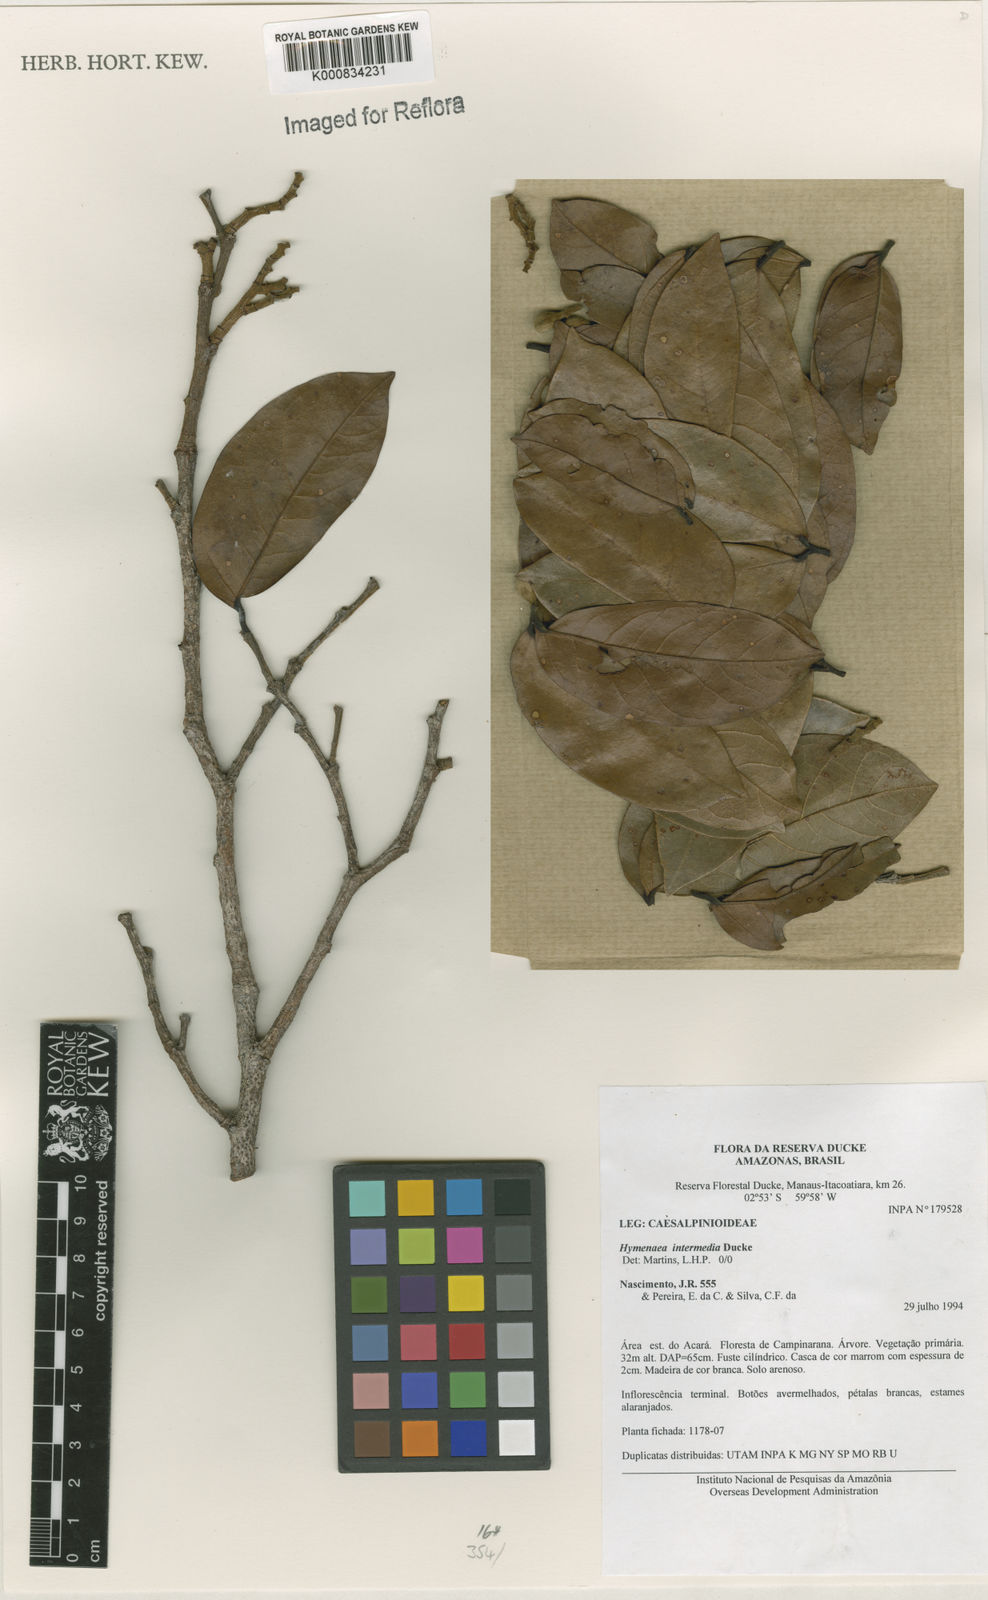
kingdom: Plantae
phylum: Tracheophyta
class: Magnoliopsida
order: Fabales
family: Fabaceae
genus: Hymenaea
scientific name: Hymenaea intermedia
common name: South american copal
